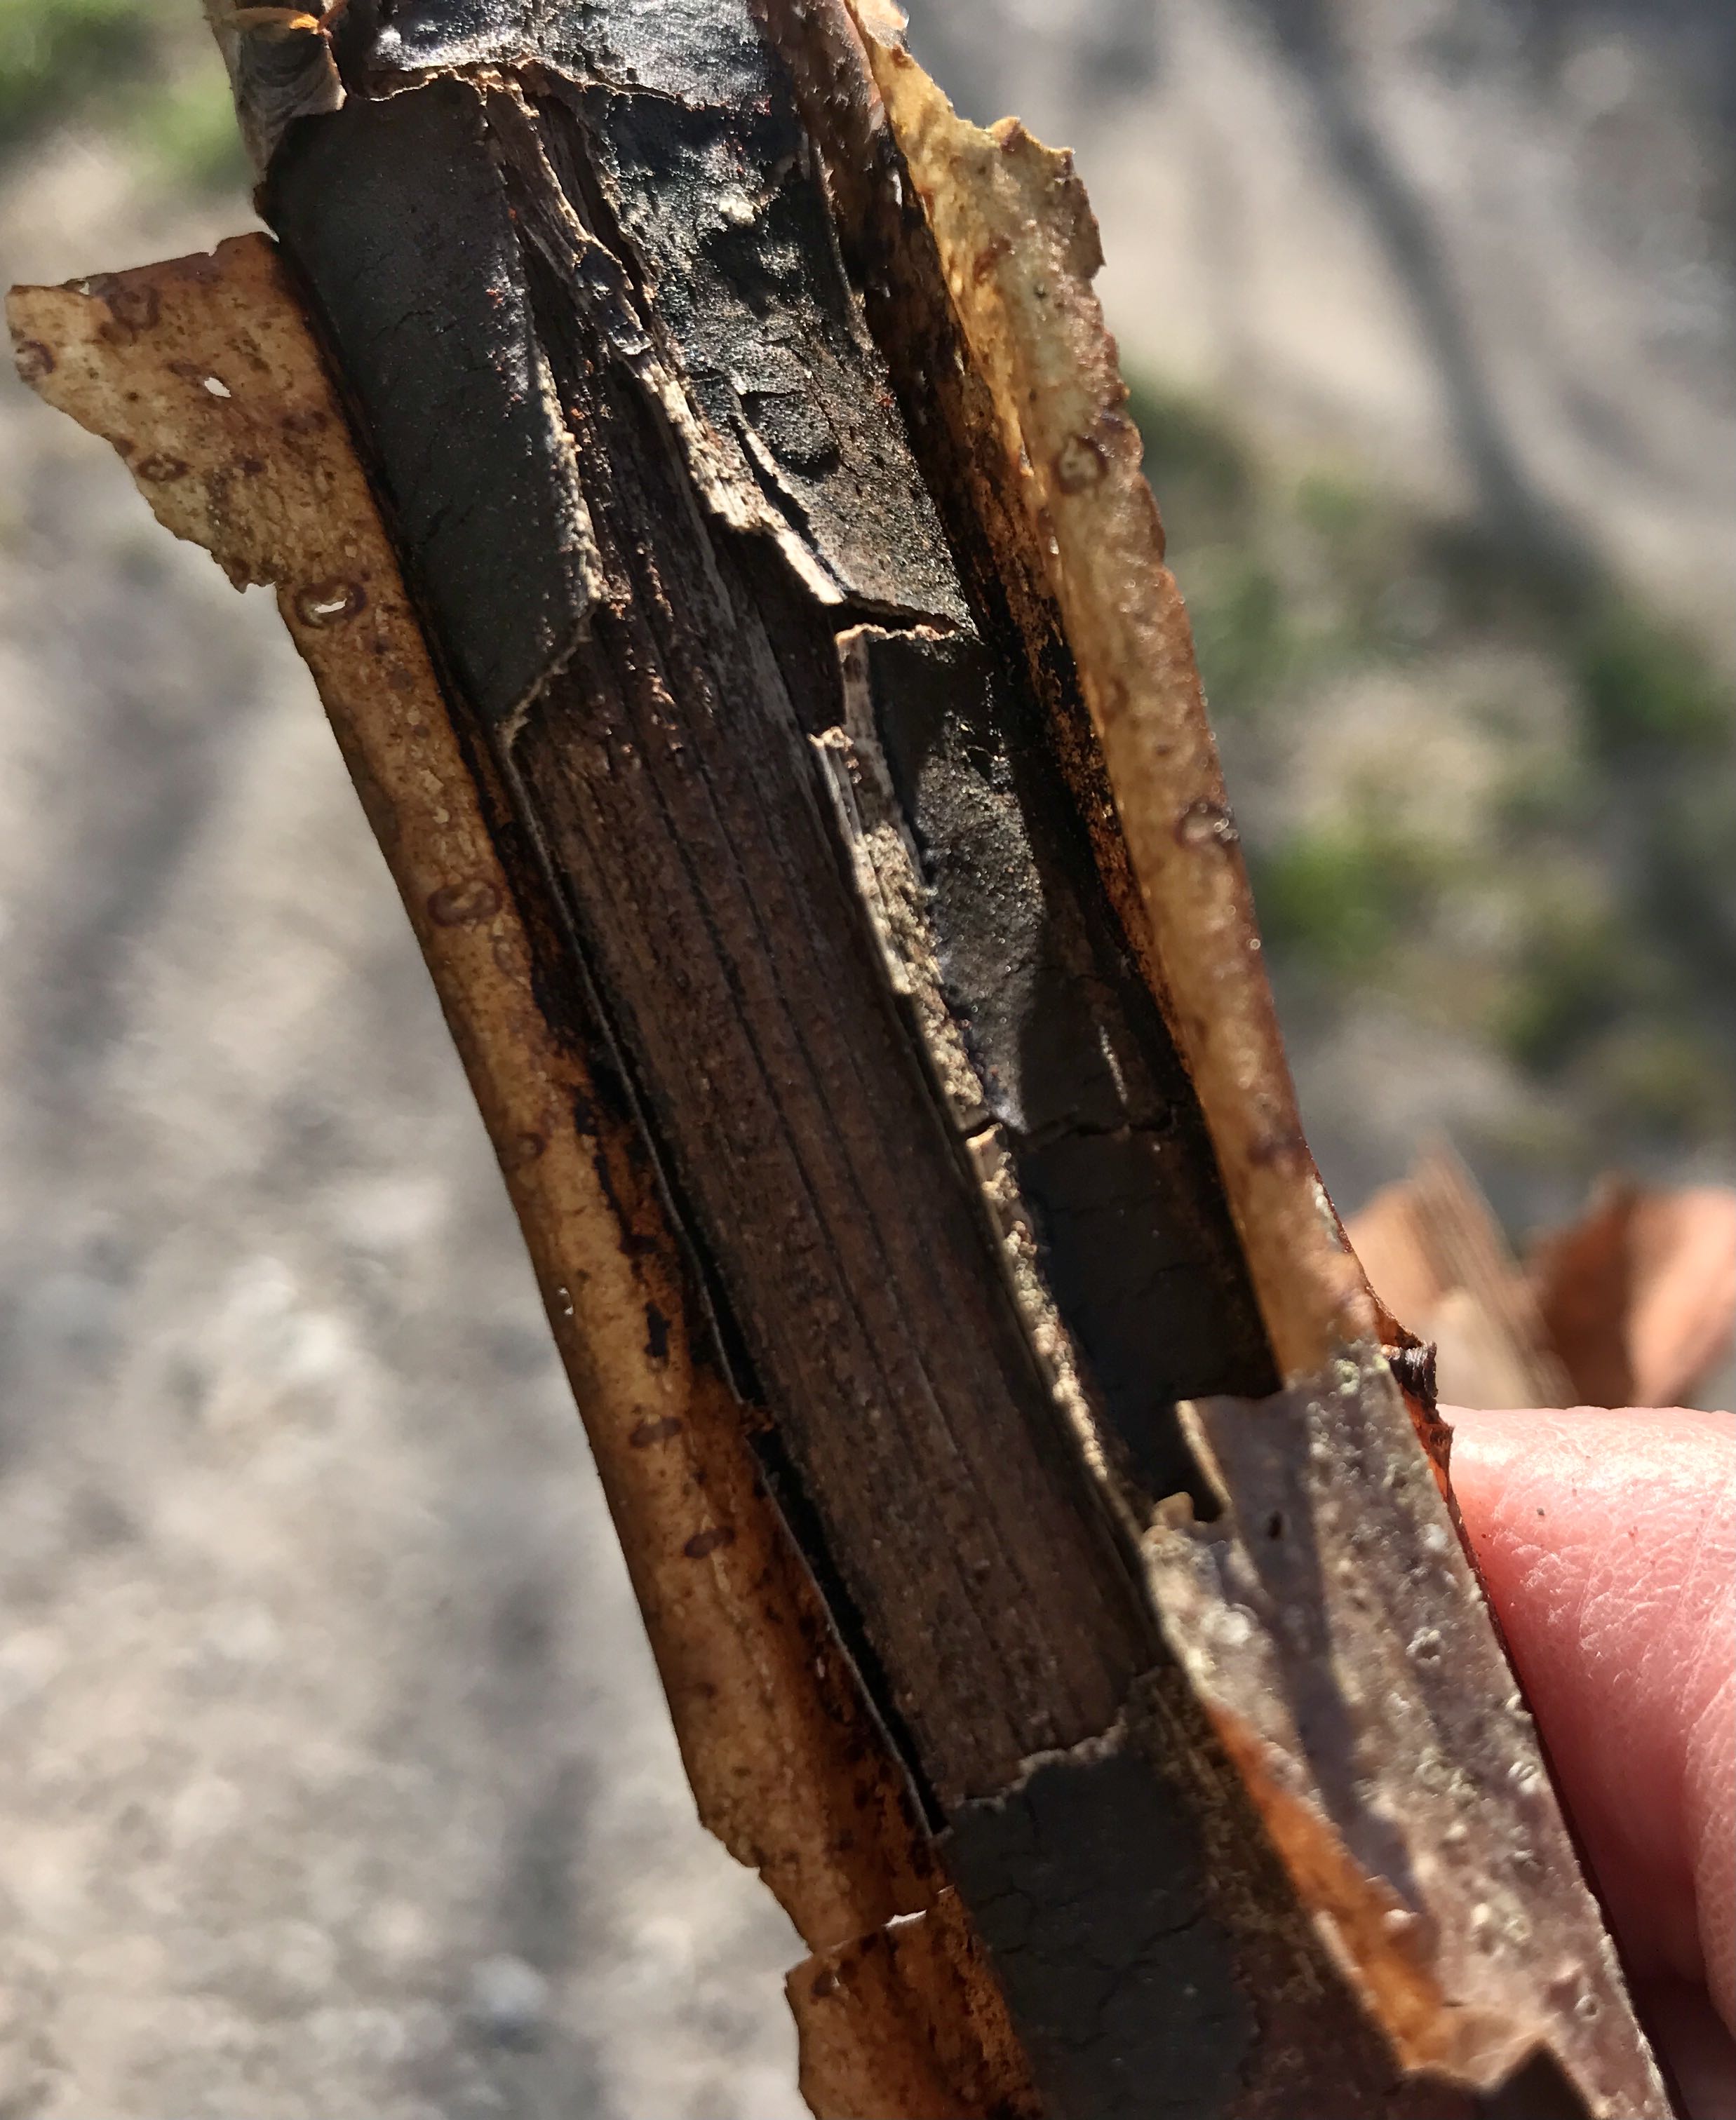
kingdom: Fungi
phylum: Ascomycota
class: Sordariomycetes
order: Xylariales
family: Diatrypaceae
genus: Diatrype
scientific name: Diatrype decorticata
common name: barksprænger-kulskorpe
